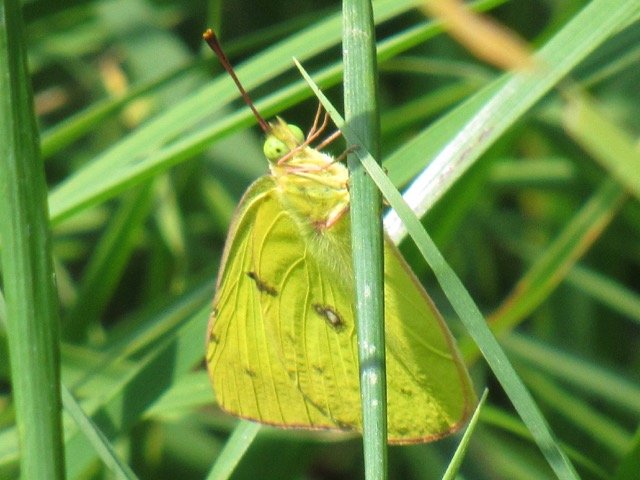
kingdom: Animalia
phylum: Arthropoda
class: Insecta
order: Lepidoptera
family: Pieridae
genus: Colias
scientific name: Colias philodice
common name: Clouded Sulphur
